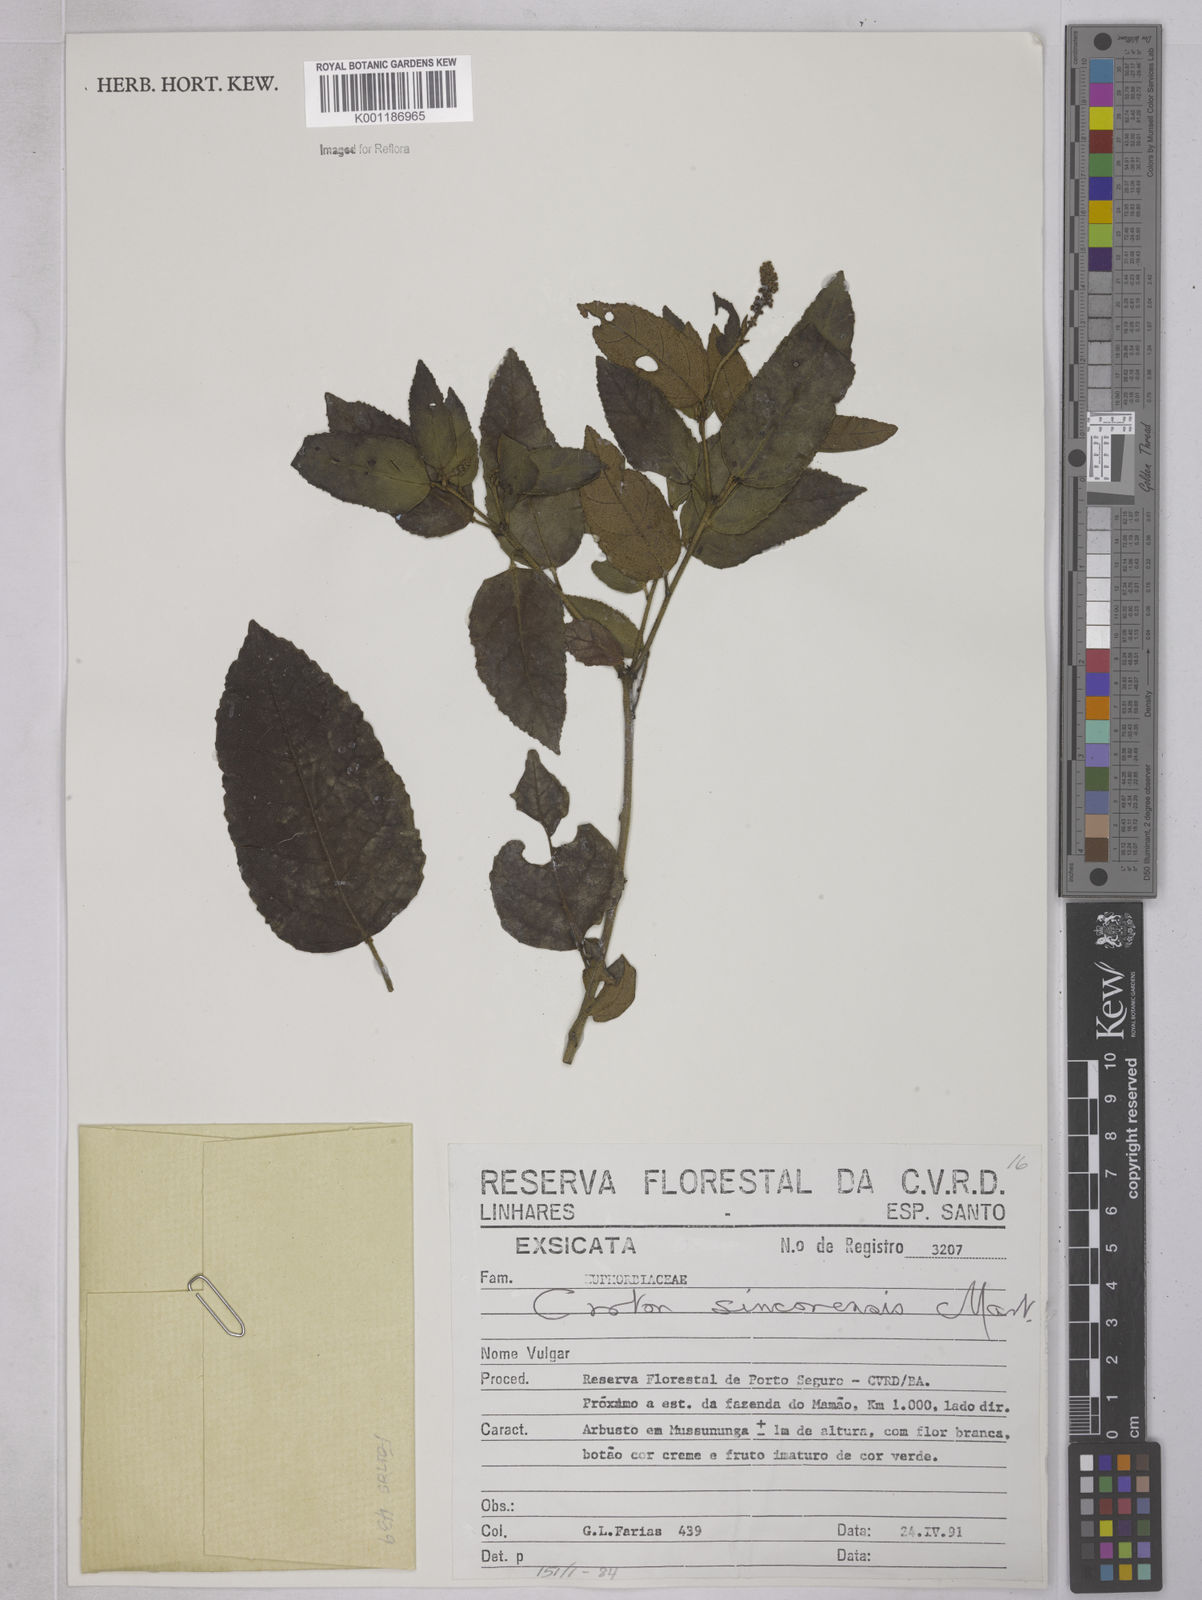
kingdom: Plantae
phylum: Tracheophyta
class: Magnoliopsida
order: Malpighiales
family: Euphorbiaceae
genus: Croton
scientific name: Croton sincorensis
